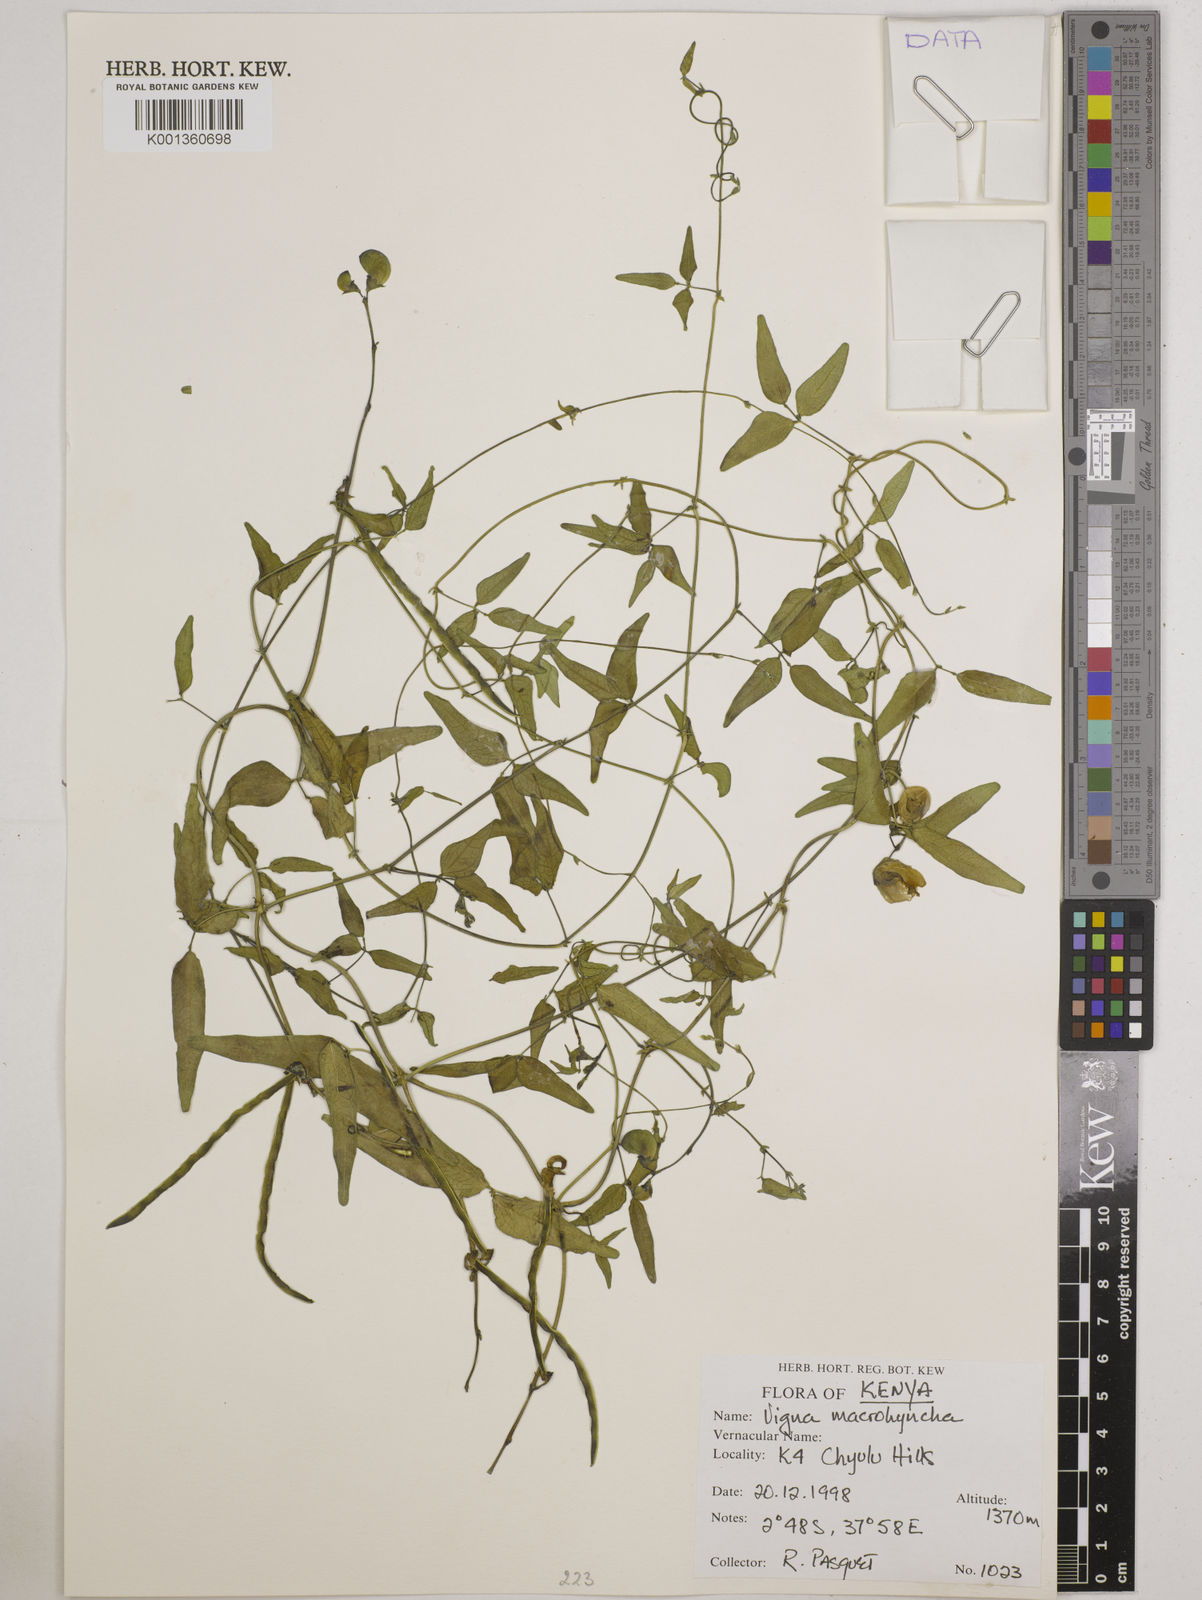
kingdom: Plantae
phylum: Tracheophyta
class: Magnoliopsida
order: Fabales
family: Fabaceae
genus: Wajira
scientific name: Wajira grahamiana
